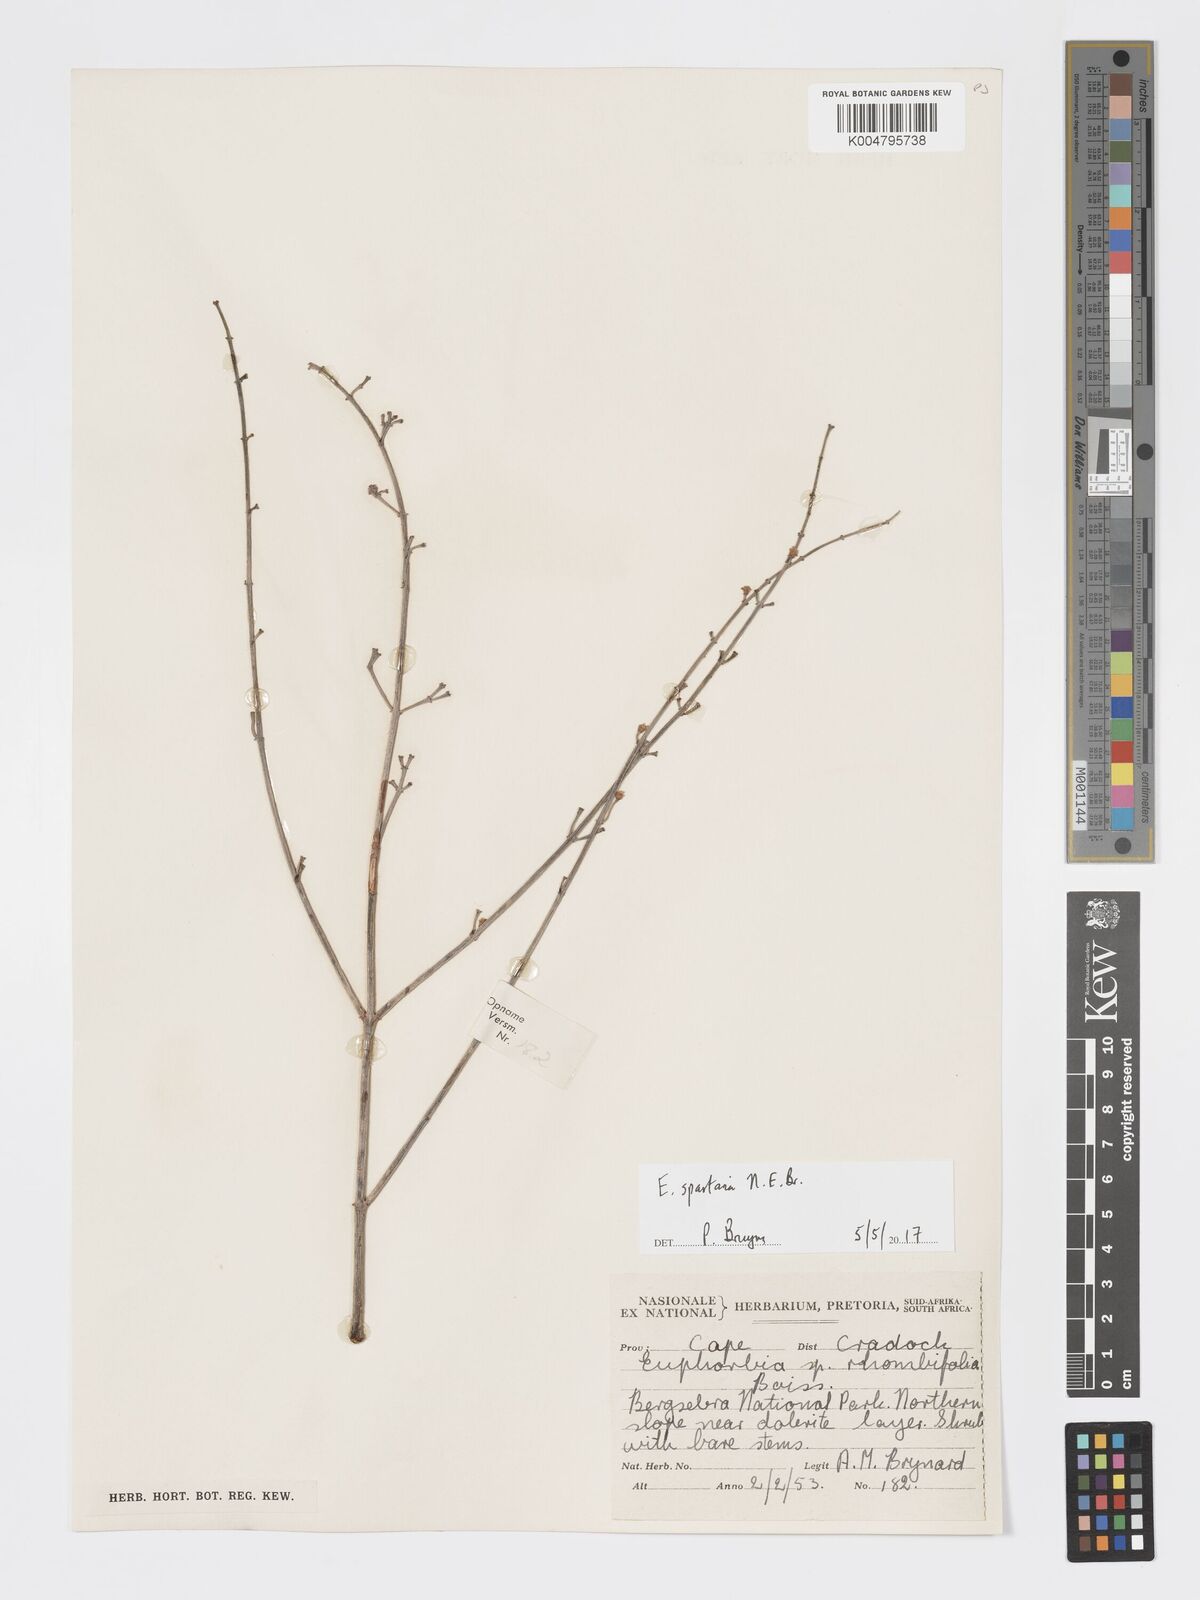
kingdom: Plantae
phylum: Tracheophyta
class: Magnoliopsida
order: Malpighiales
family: Euphorbiaceae
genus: Euphorbia
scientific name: Euphorbia spartaria
